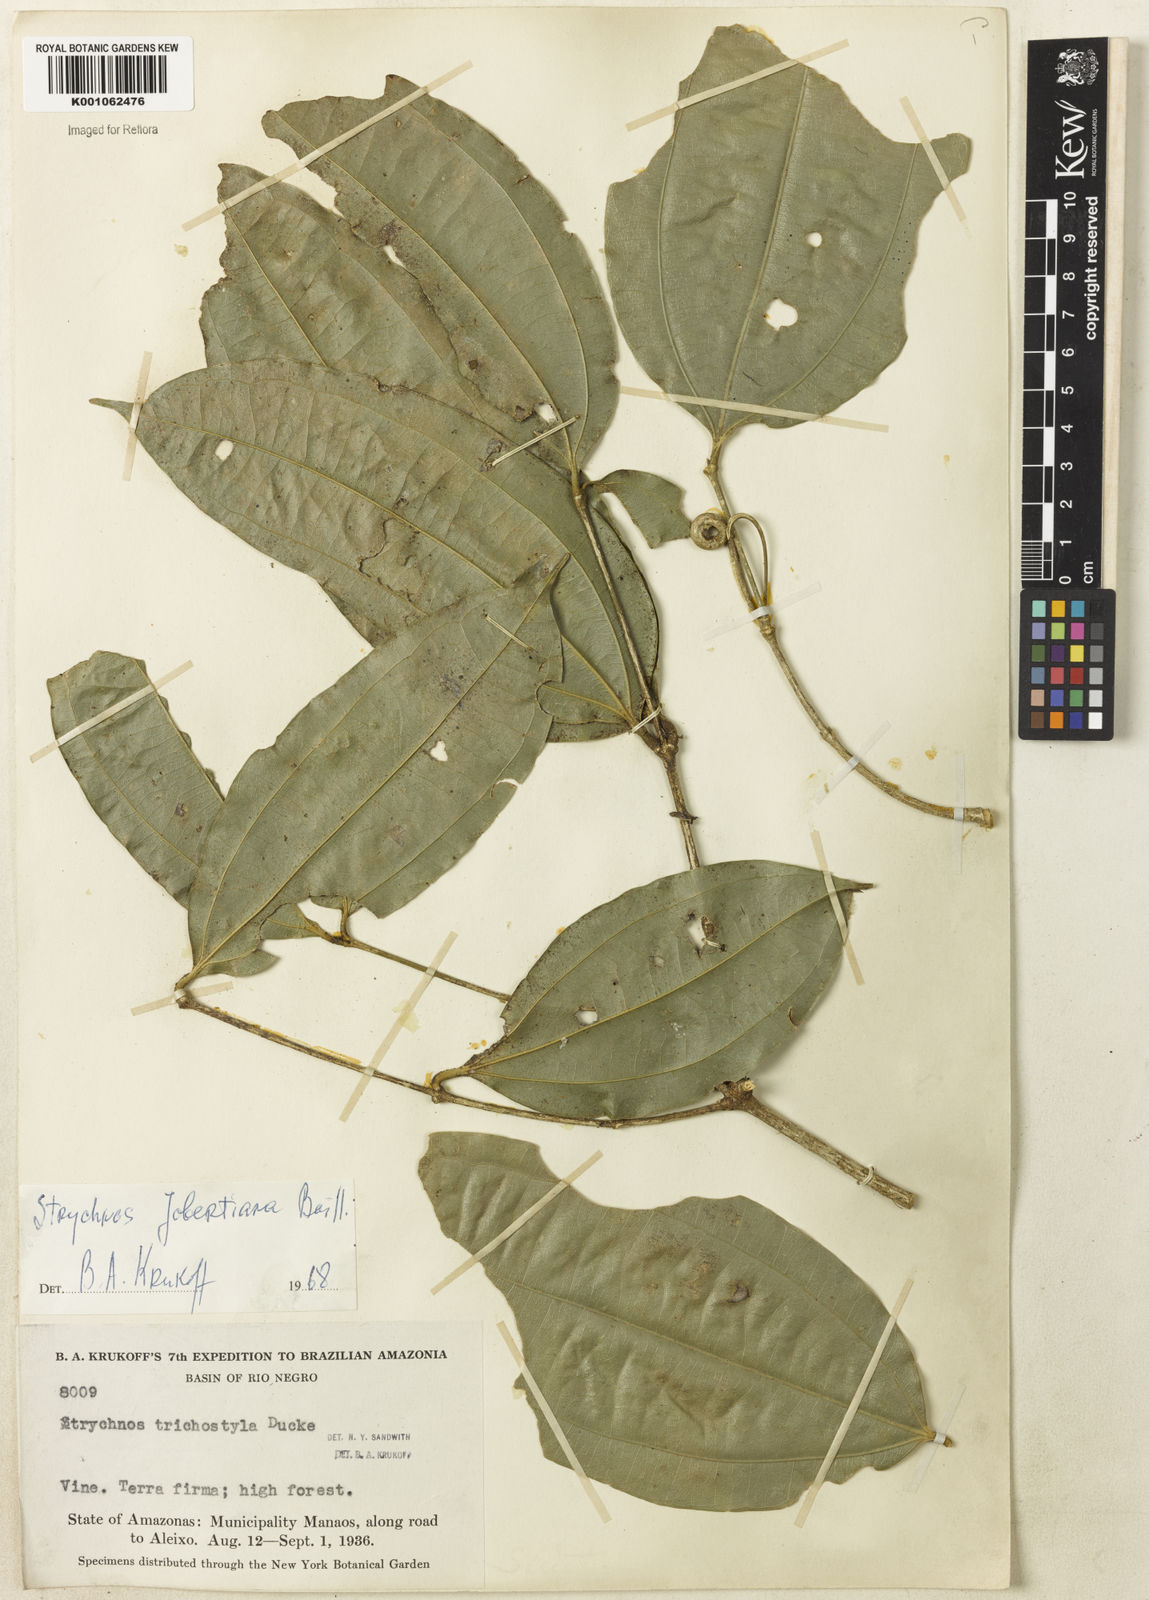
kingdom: Plantae
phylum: Tracheophyta
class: Magnoliopsida
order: Gentianales
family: Loganiaceae
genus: Strychnos
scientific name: Strychnos jobertiana
